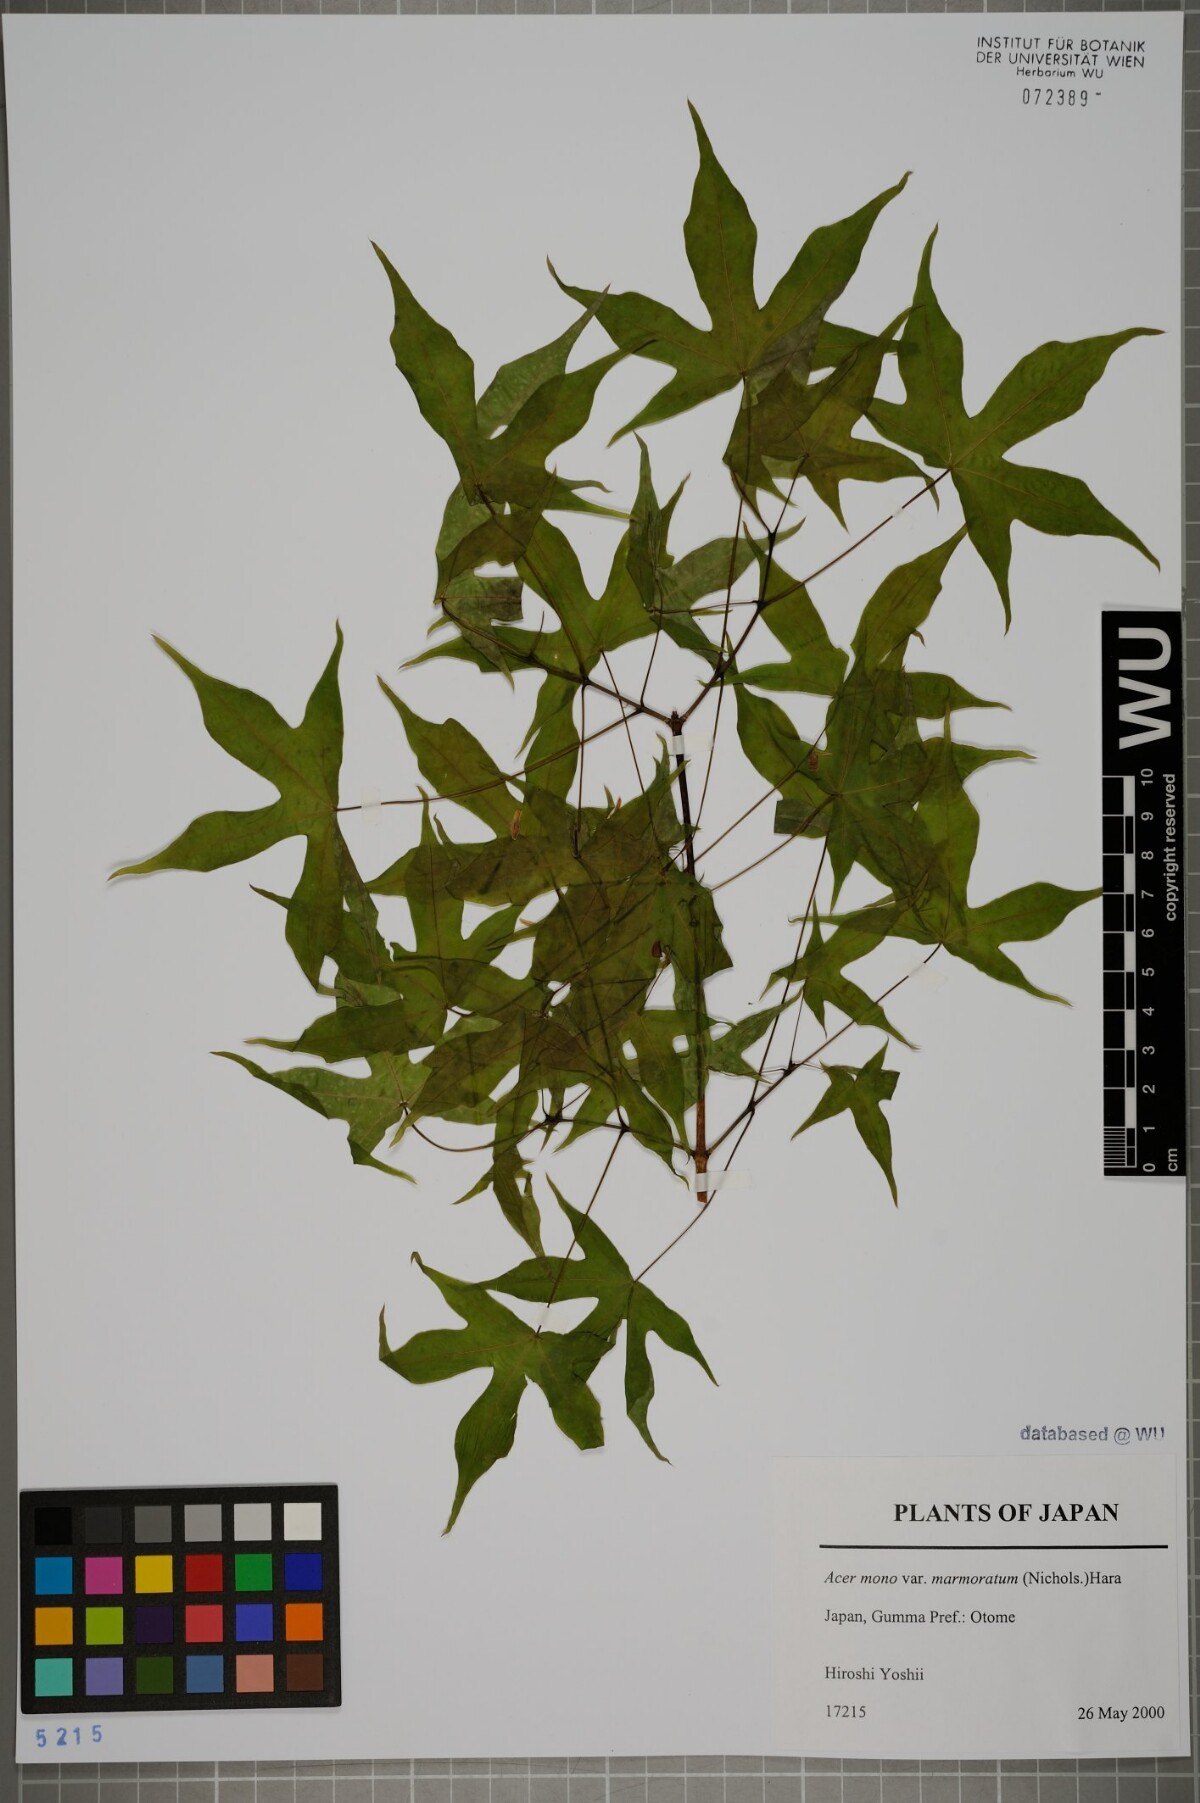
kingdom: Plantae
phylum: Tracheophyta
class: Magnoliopsida
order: Sapindales
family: Sapindaceae
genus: Acer
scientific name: Acer pictum
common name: The painted maple
